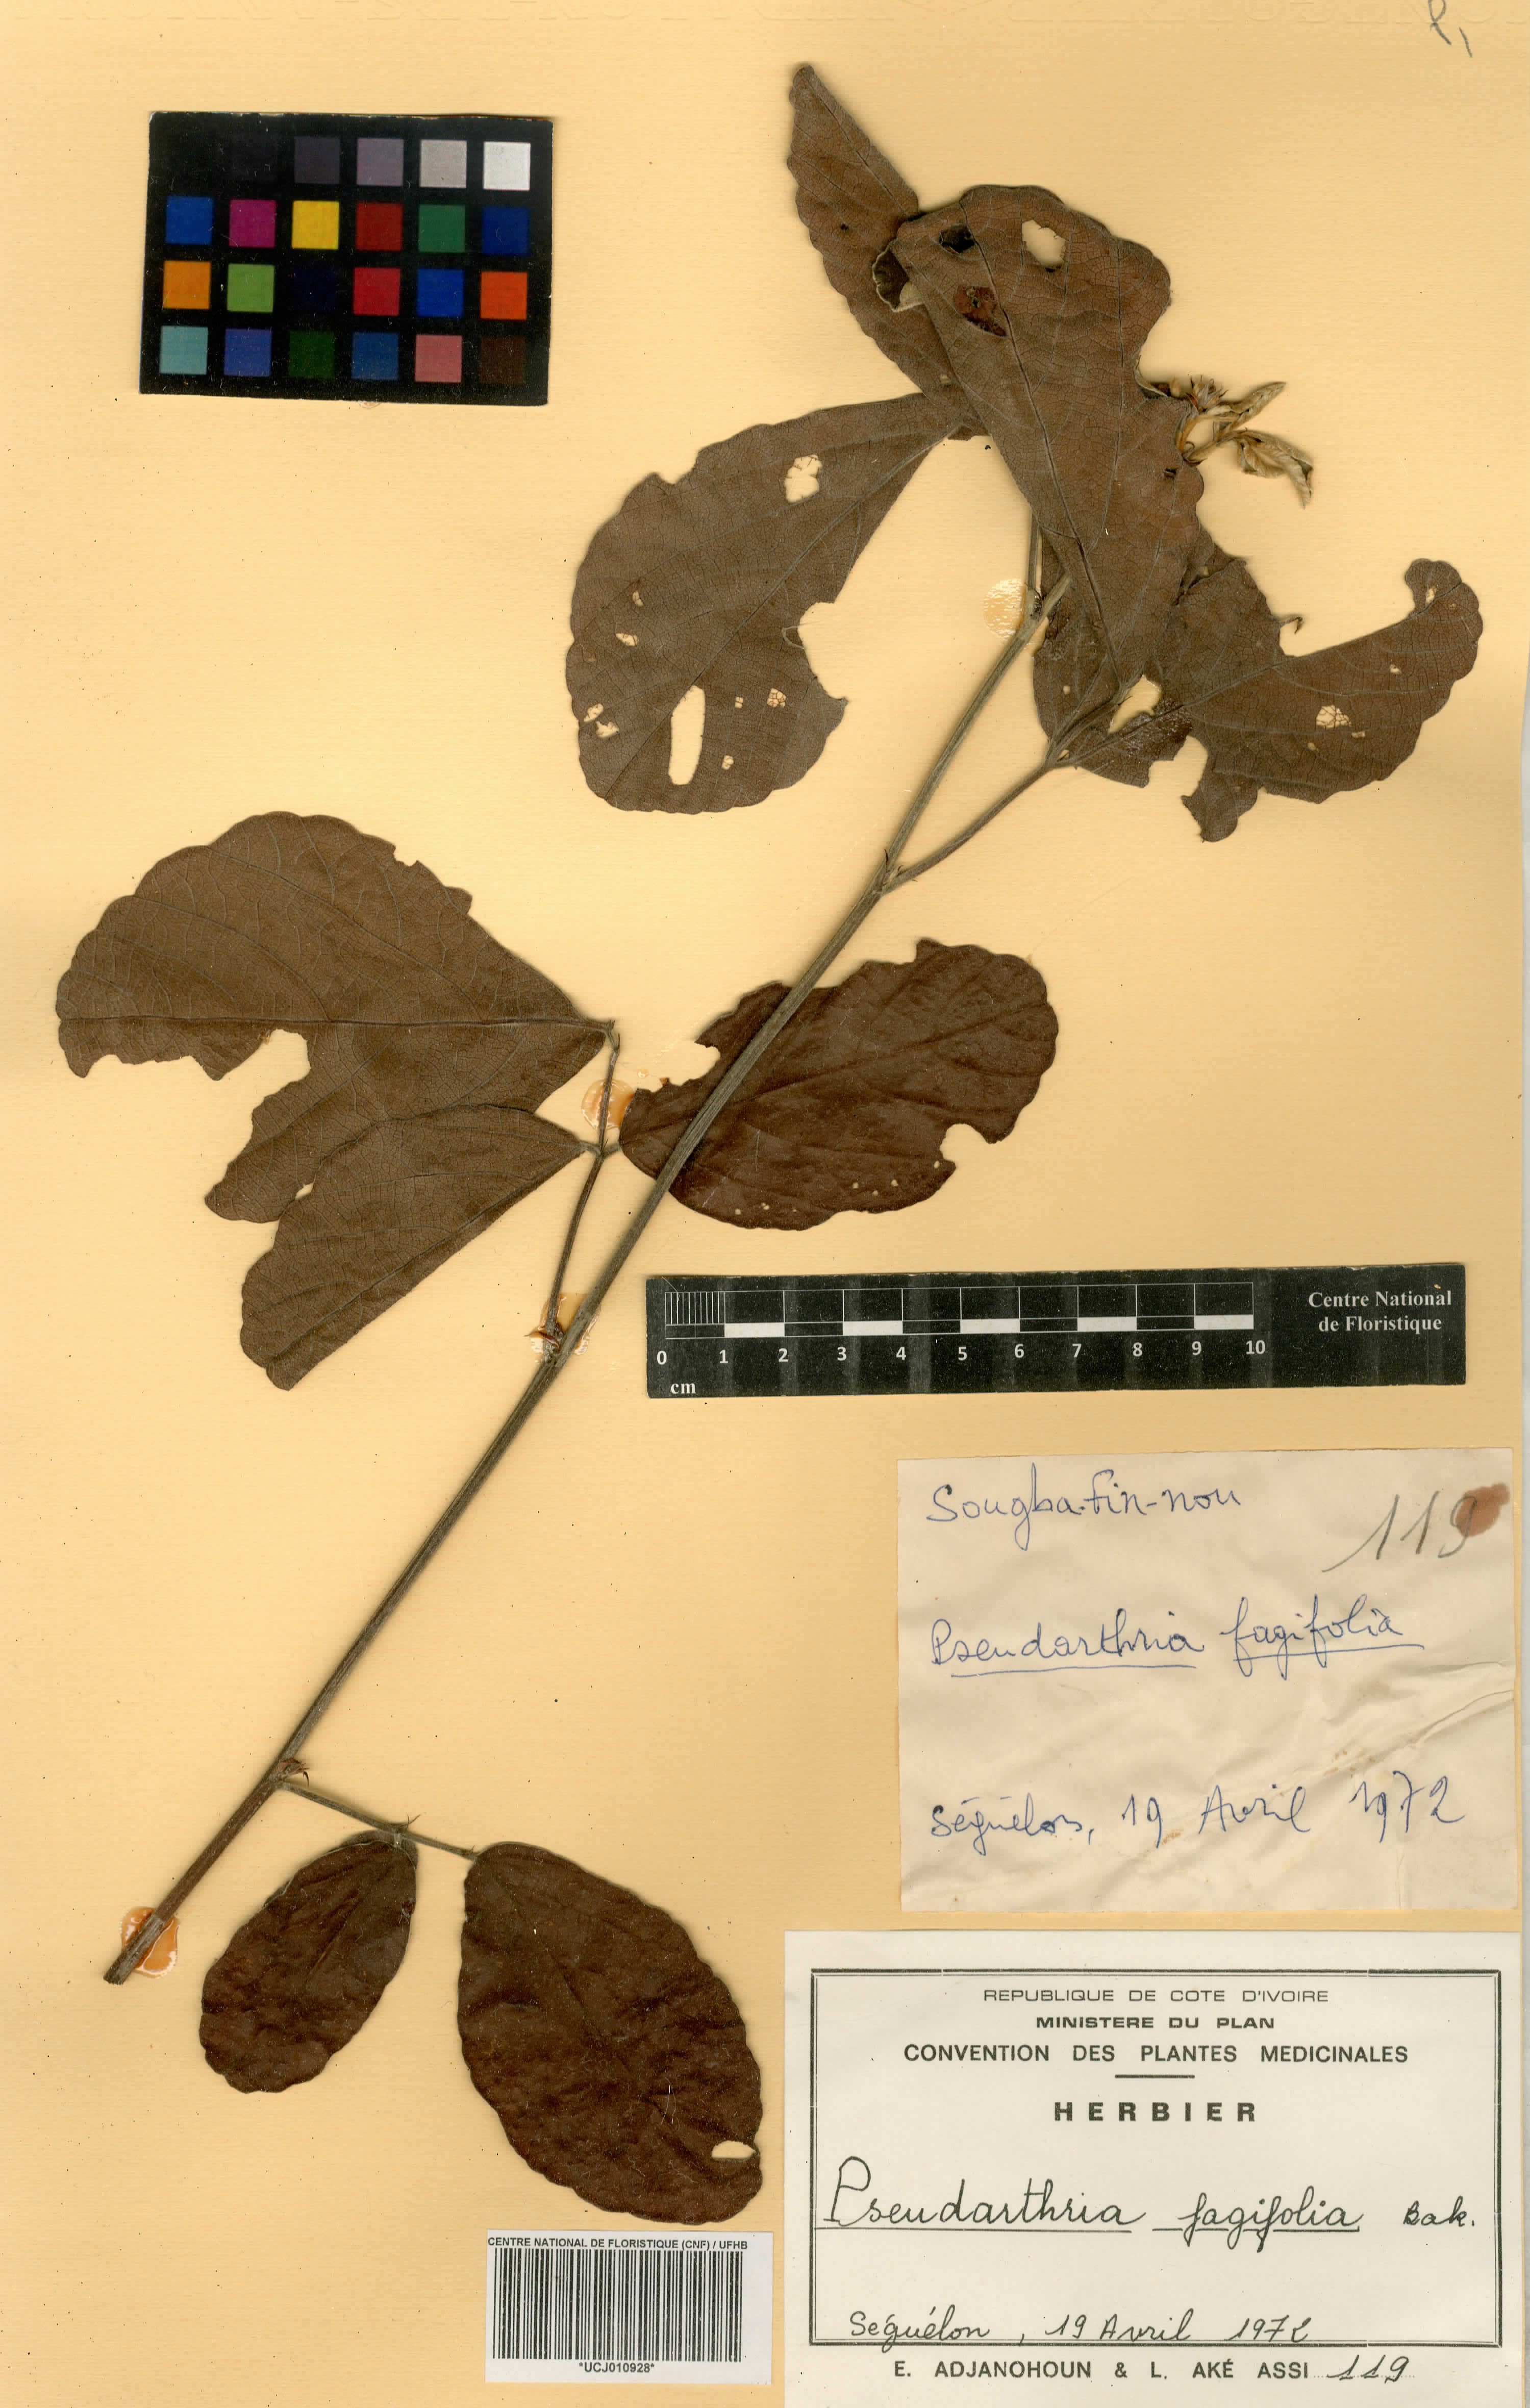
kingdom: Plantae
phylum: Tracheophyta
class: Magnoliopsida
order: Fabales
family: Fabaceae
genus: Pseudarthria
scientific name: Pseudarthria fagifolia
